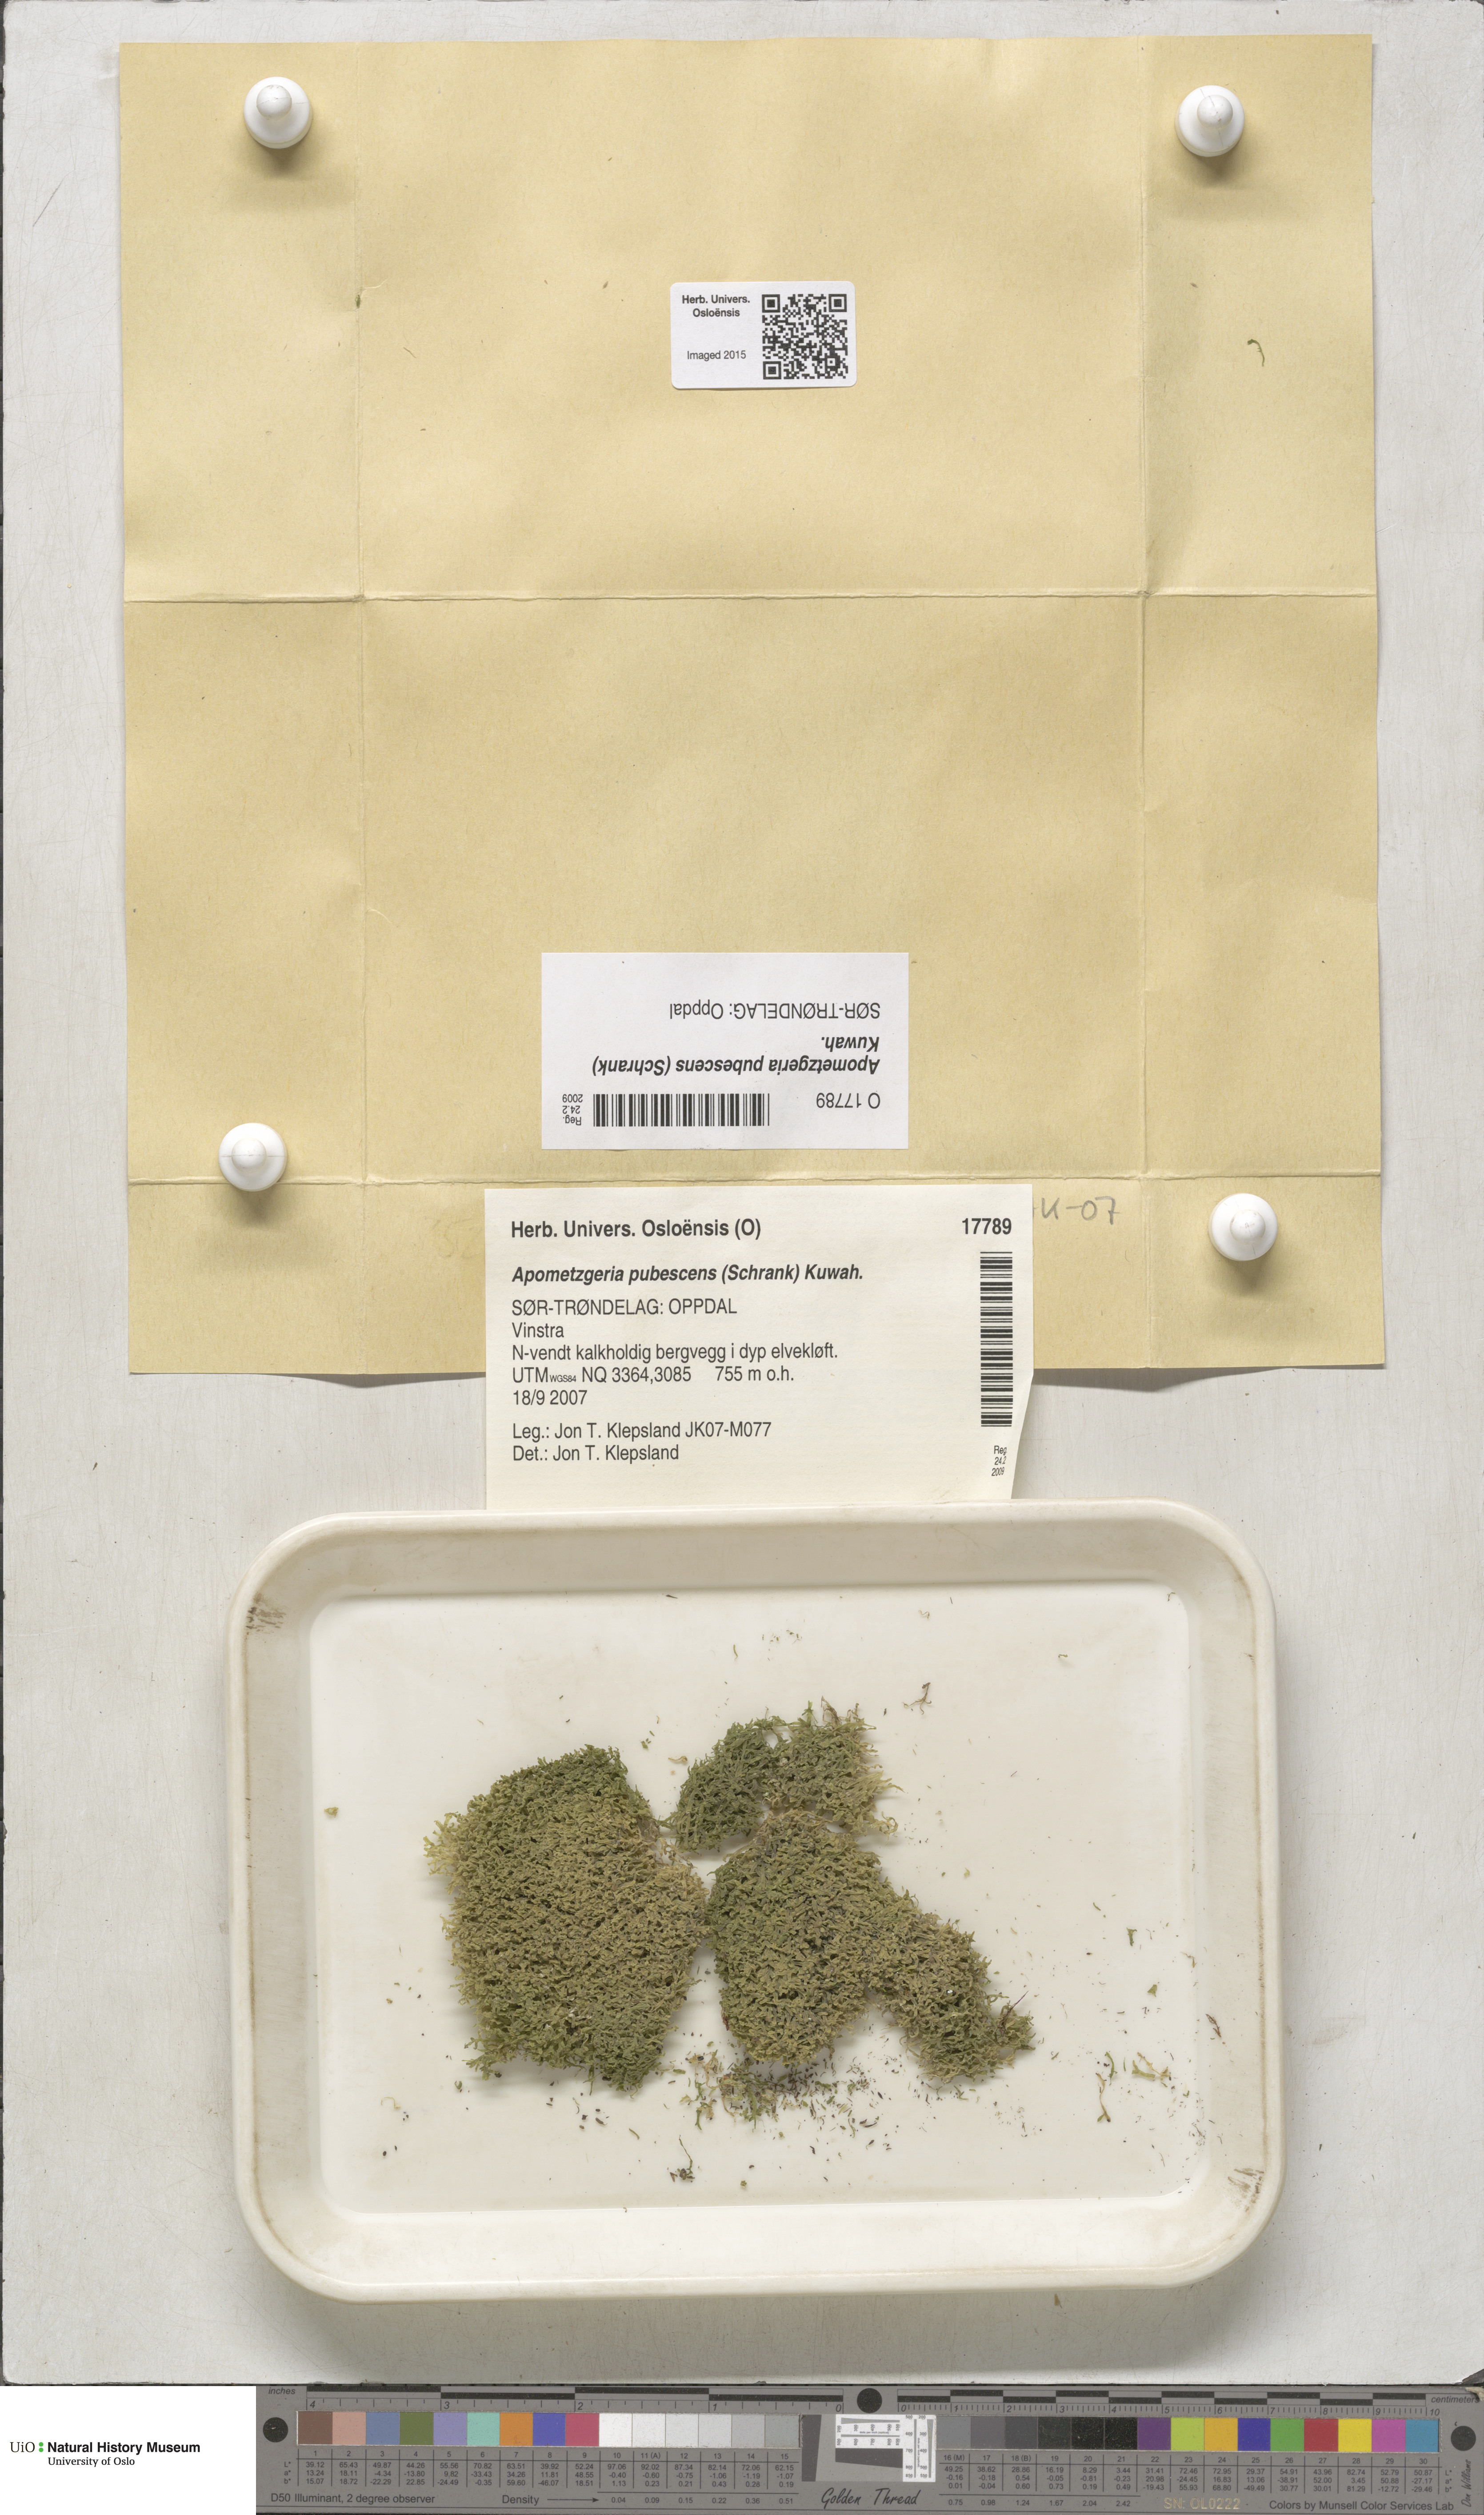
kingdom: Plantae
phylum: Marchantiophyta
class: Jungermanniopsida
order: Metzgeriales
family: Metzgeriaceae
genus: Metzgeria
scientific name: Metzgeria pubescens
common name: Downy veilwort
